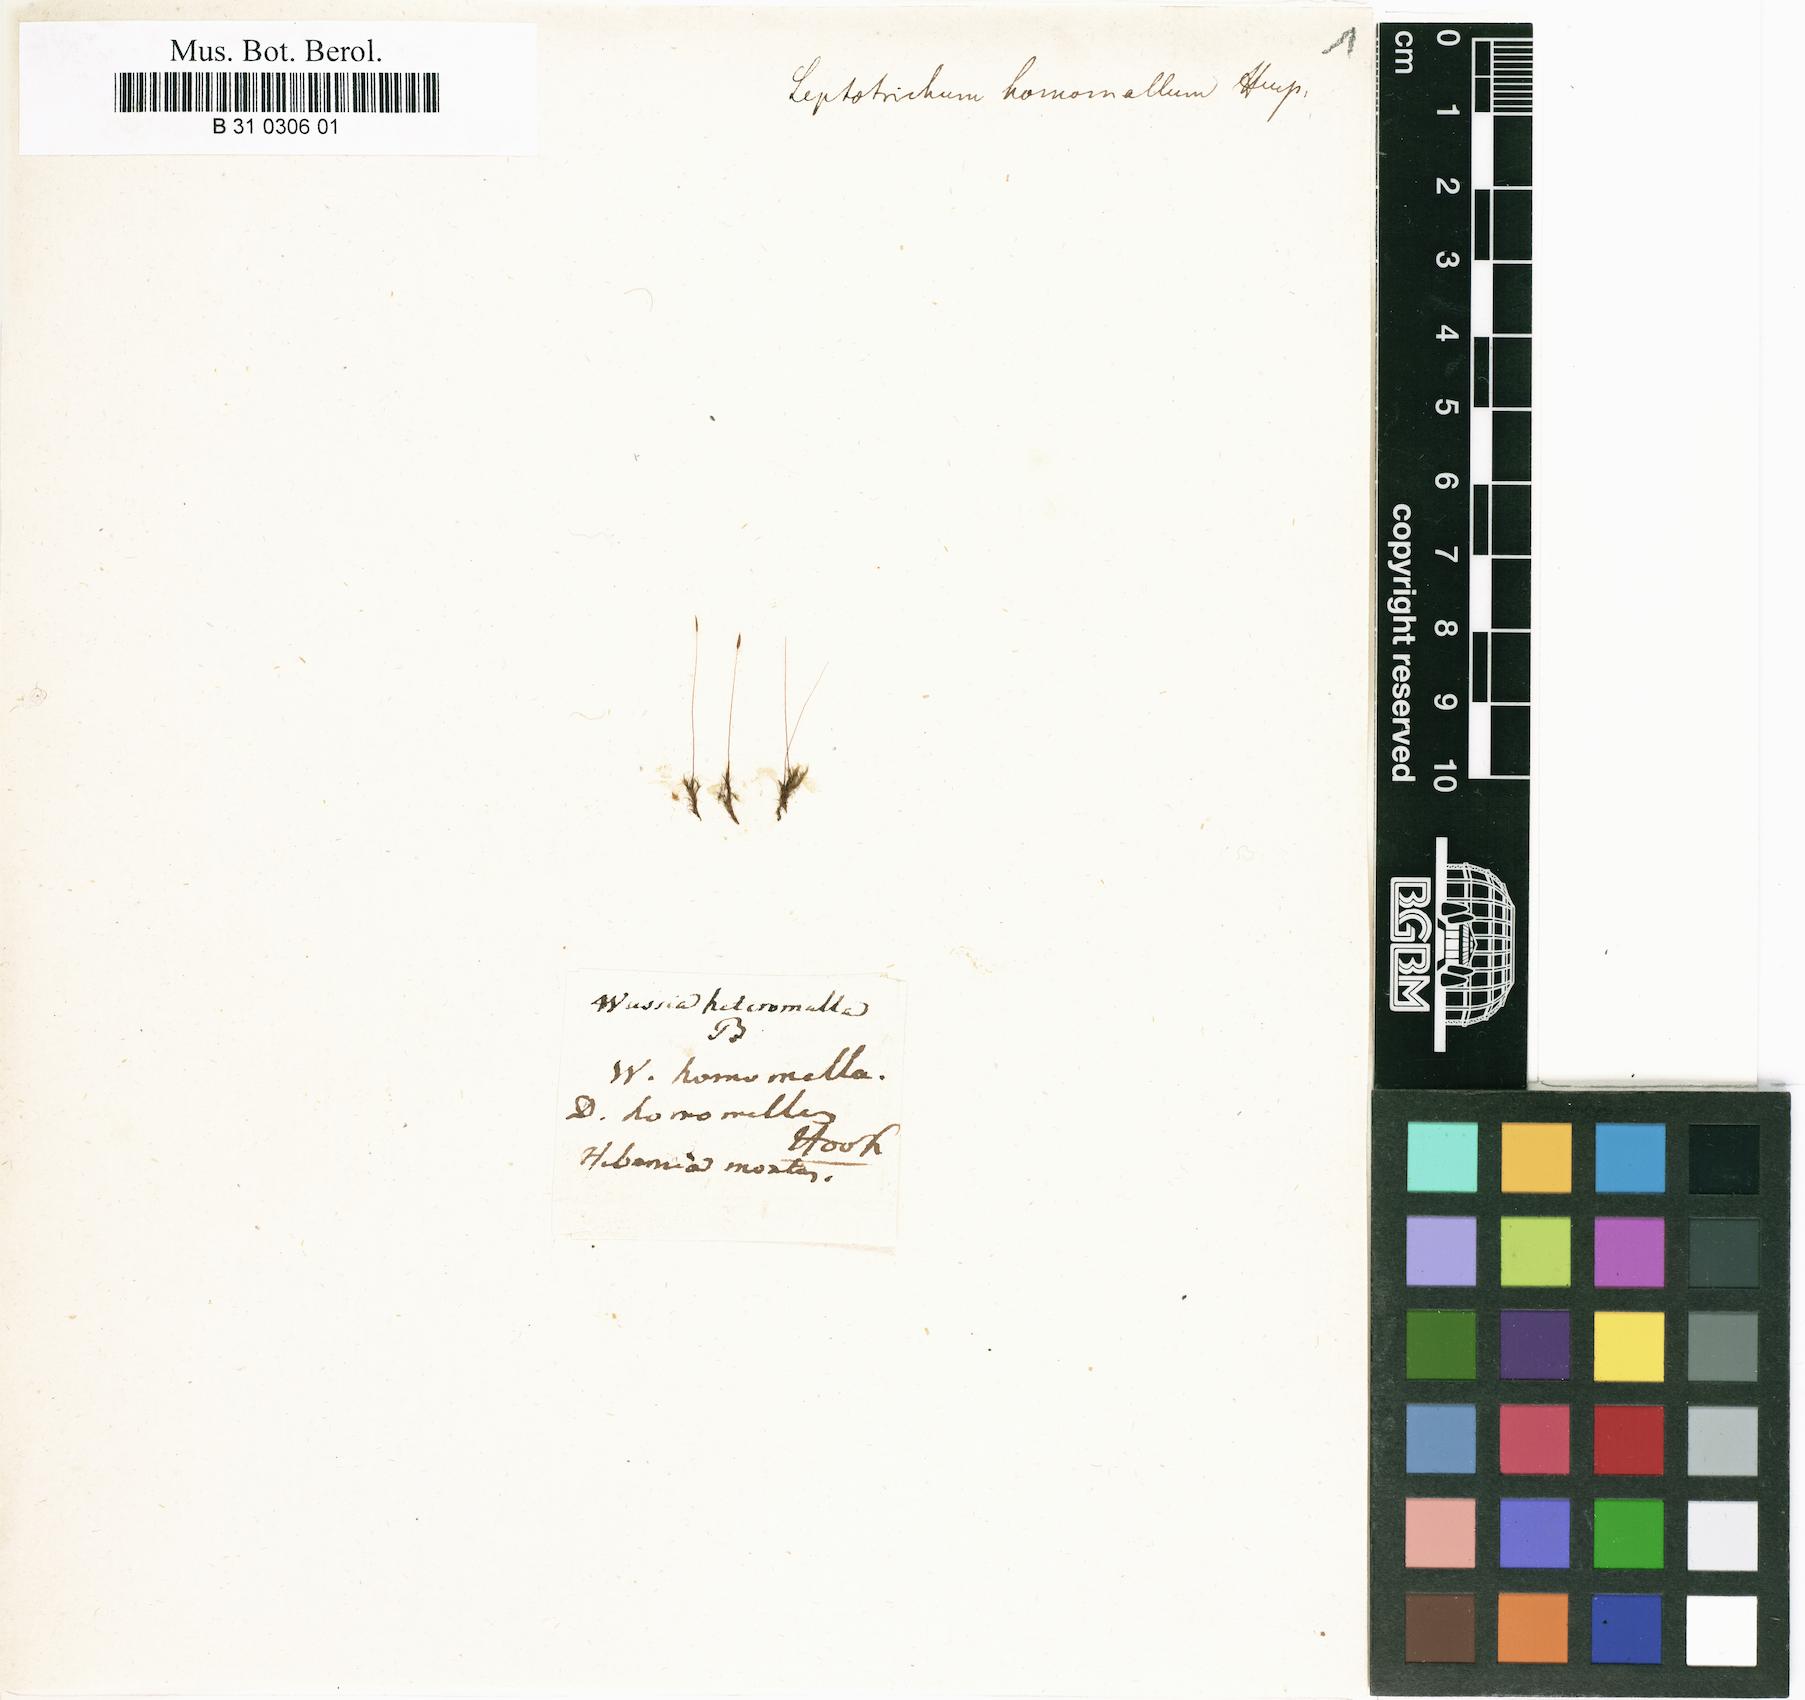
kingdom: Plantae
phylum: Bryophyta
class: Bryopsida
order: Dicranales
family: Ditrichaceae
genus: Ditrichum
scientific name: Ditrichum heteromallum
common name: Curve-leaved ditrichum
